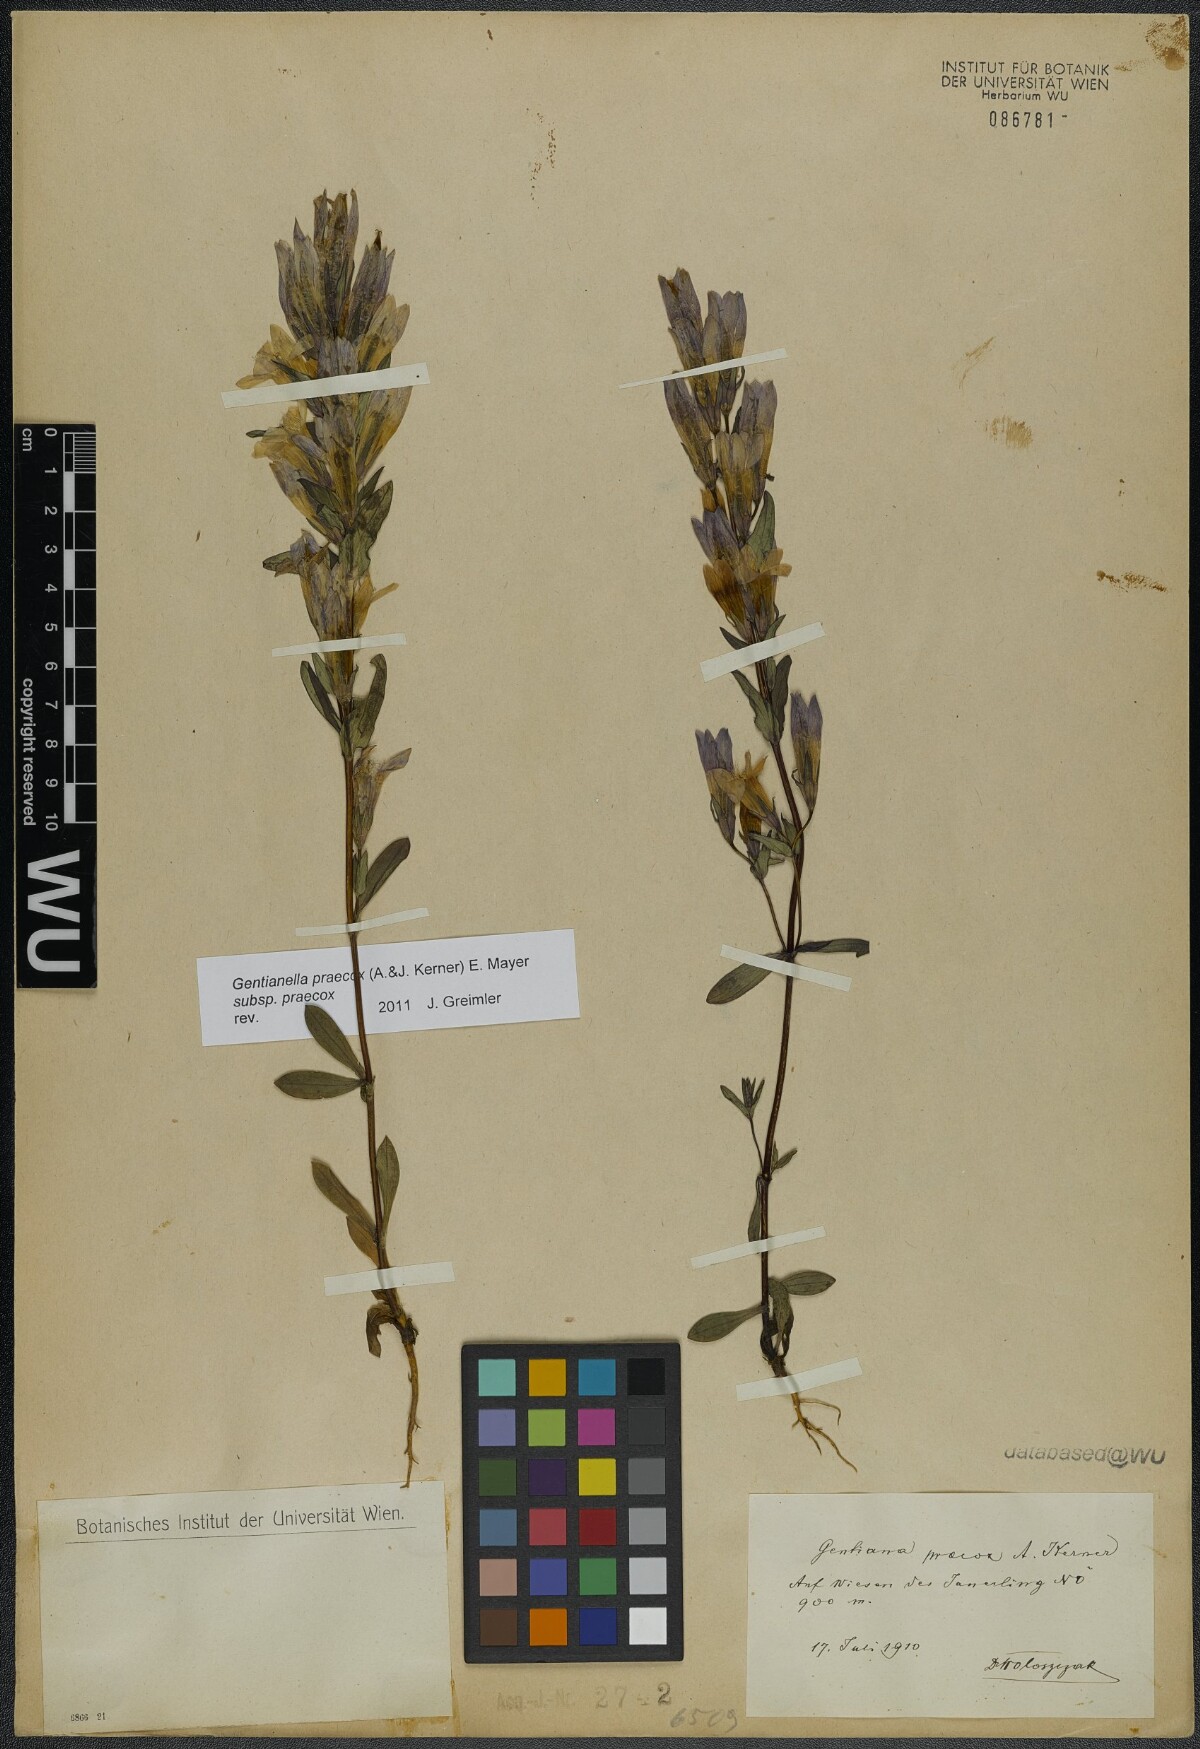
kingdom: Plantae
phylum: Tracheophyta
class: Magnoliopsida
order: Gentianales
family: Gentianaceae
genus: Gentianella
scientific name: Gentianella praecox
